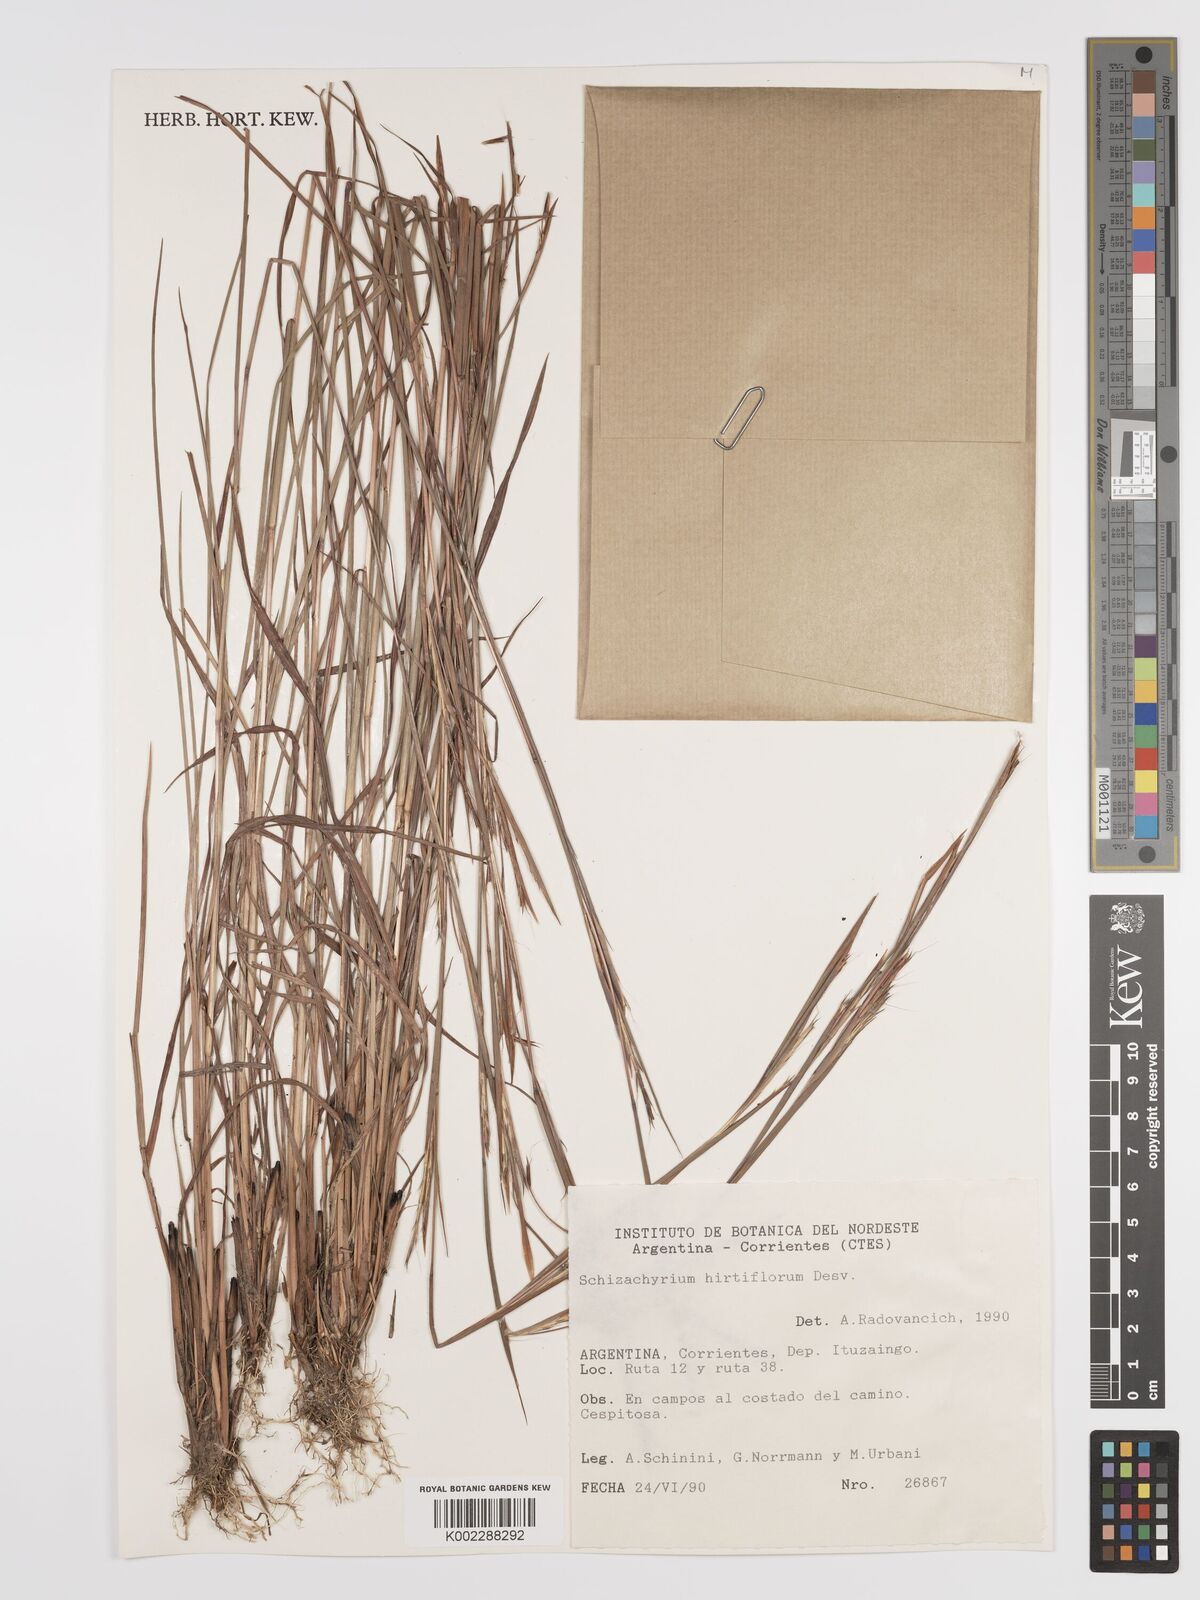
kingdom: Plantae
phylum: Tracheophyta
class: Liliopsida
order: Poales
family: Poaceae
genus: Schizachyrium
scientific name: Schizachyrium sanguineum
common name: Crimson bluestem
